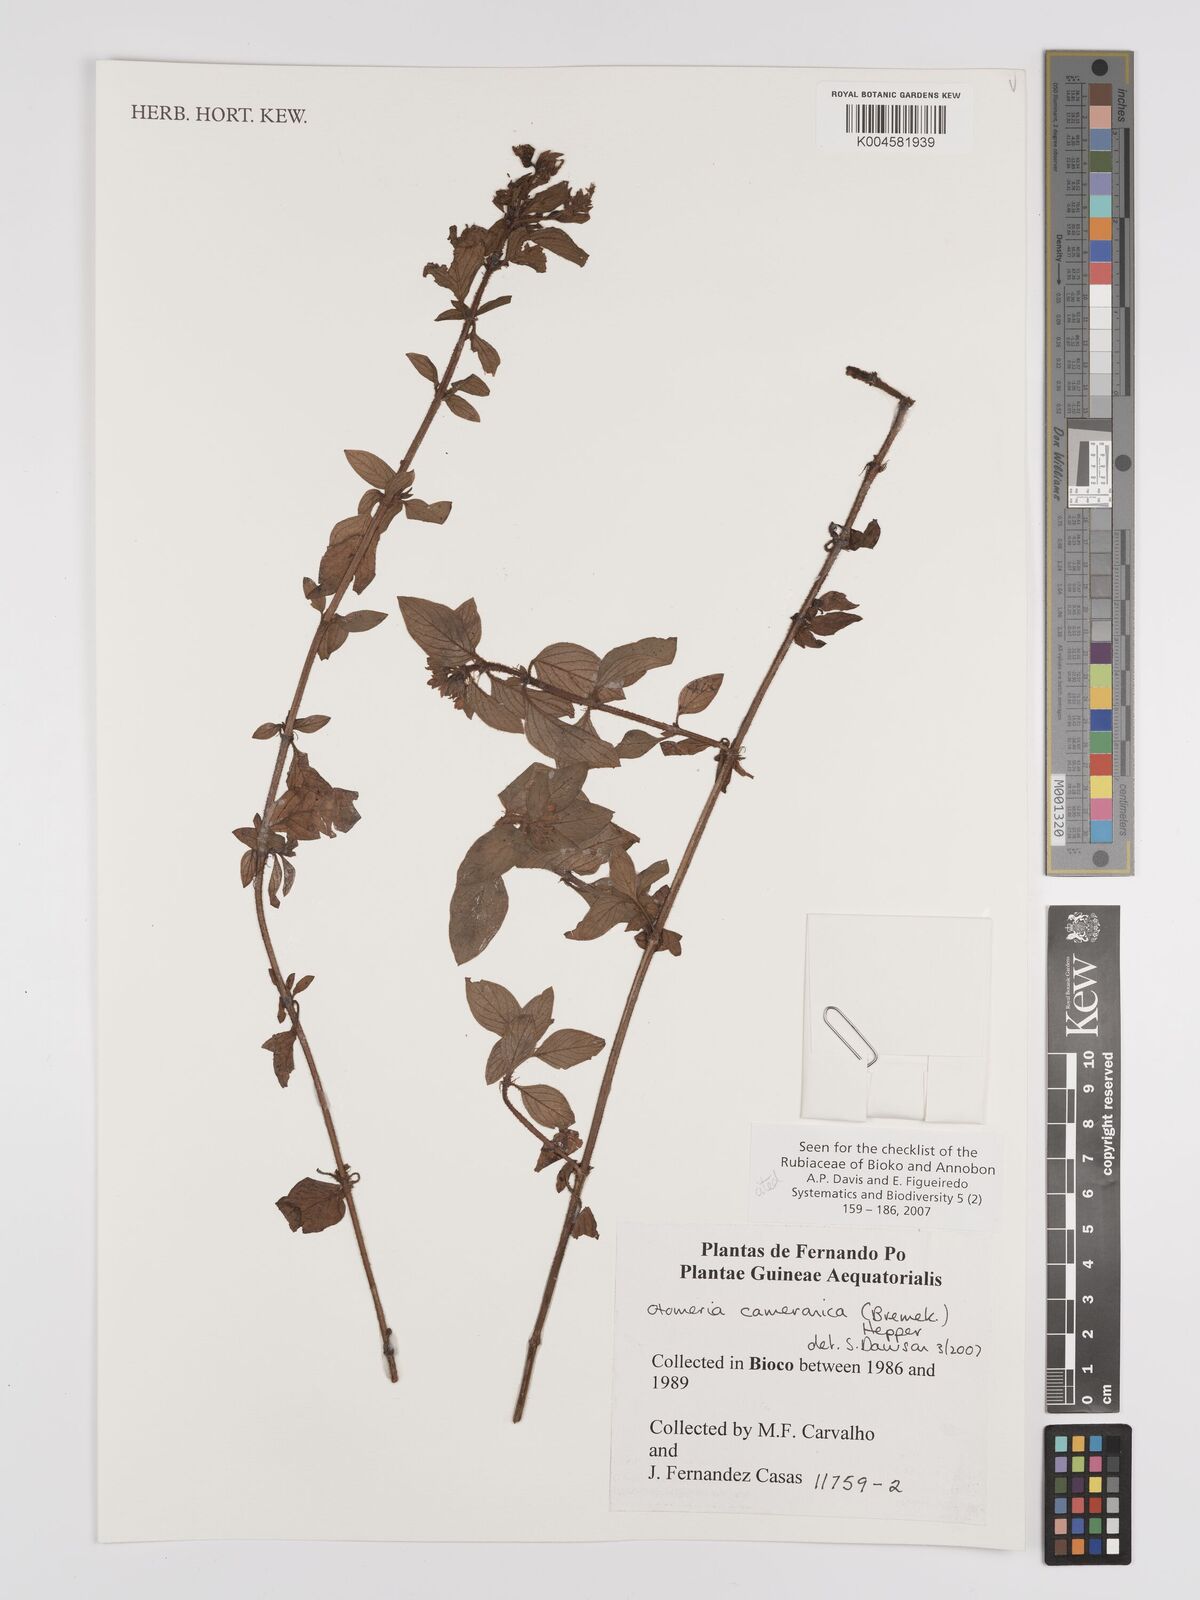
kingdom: Plantae
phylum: Tracheophyta
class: Magnoliopsida
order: Gentianales
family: Rubiaceae
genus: Otomeria
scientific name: Otomeria cameronica
